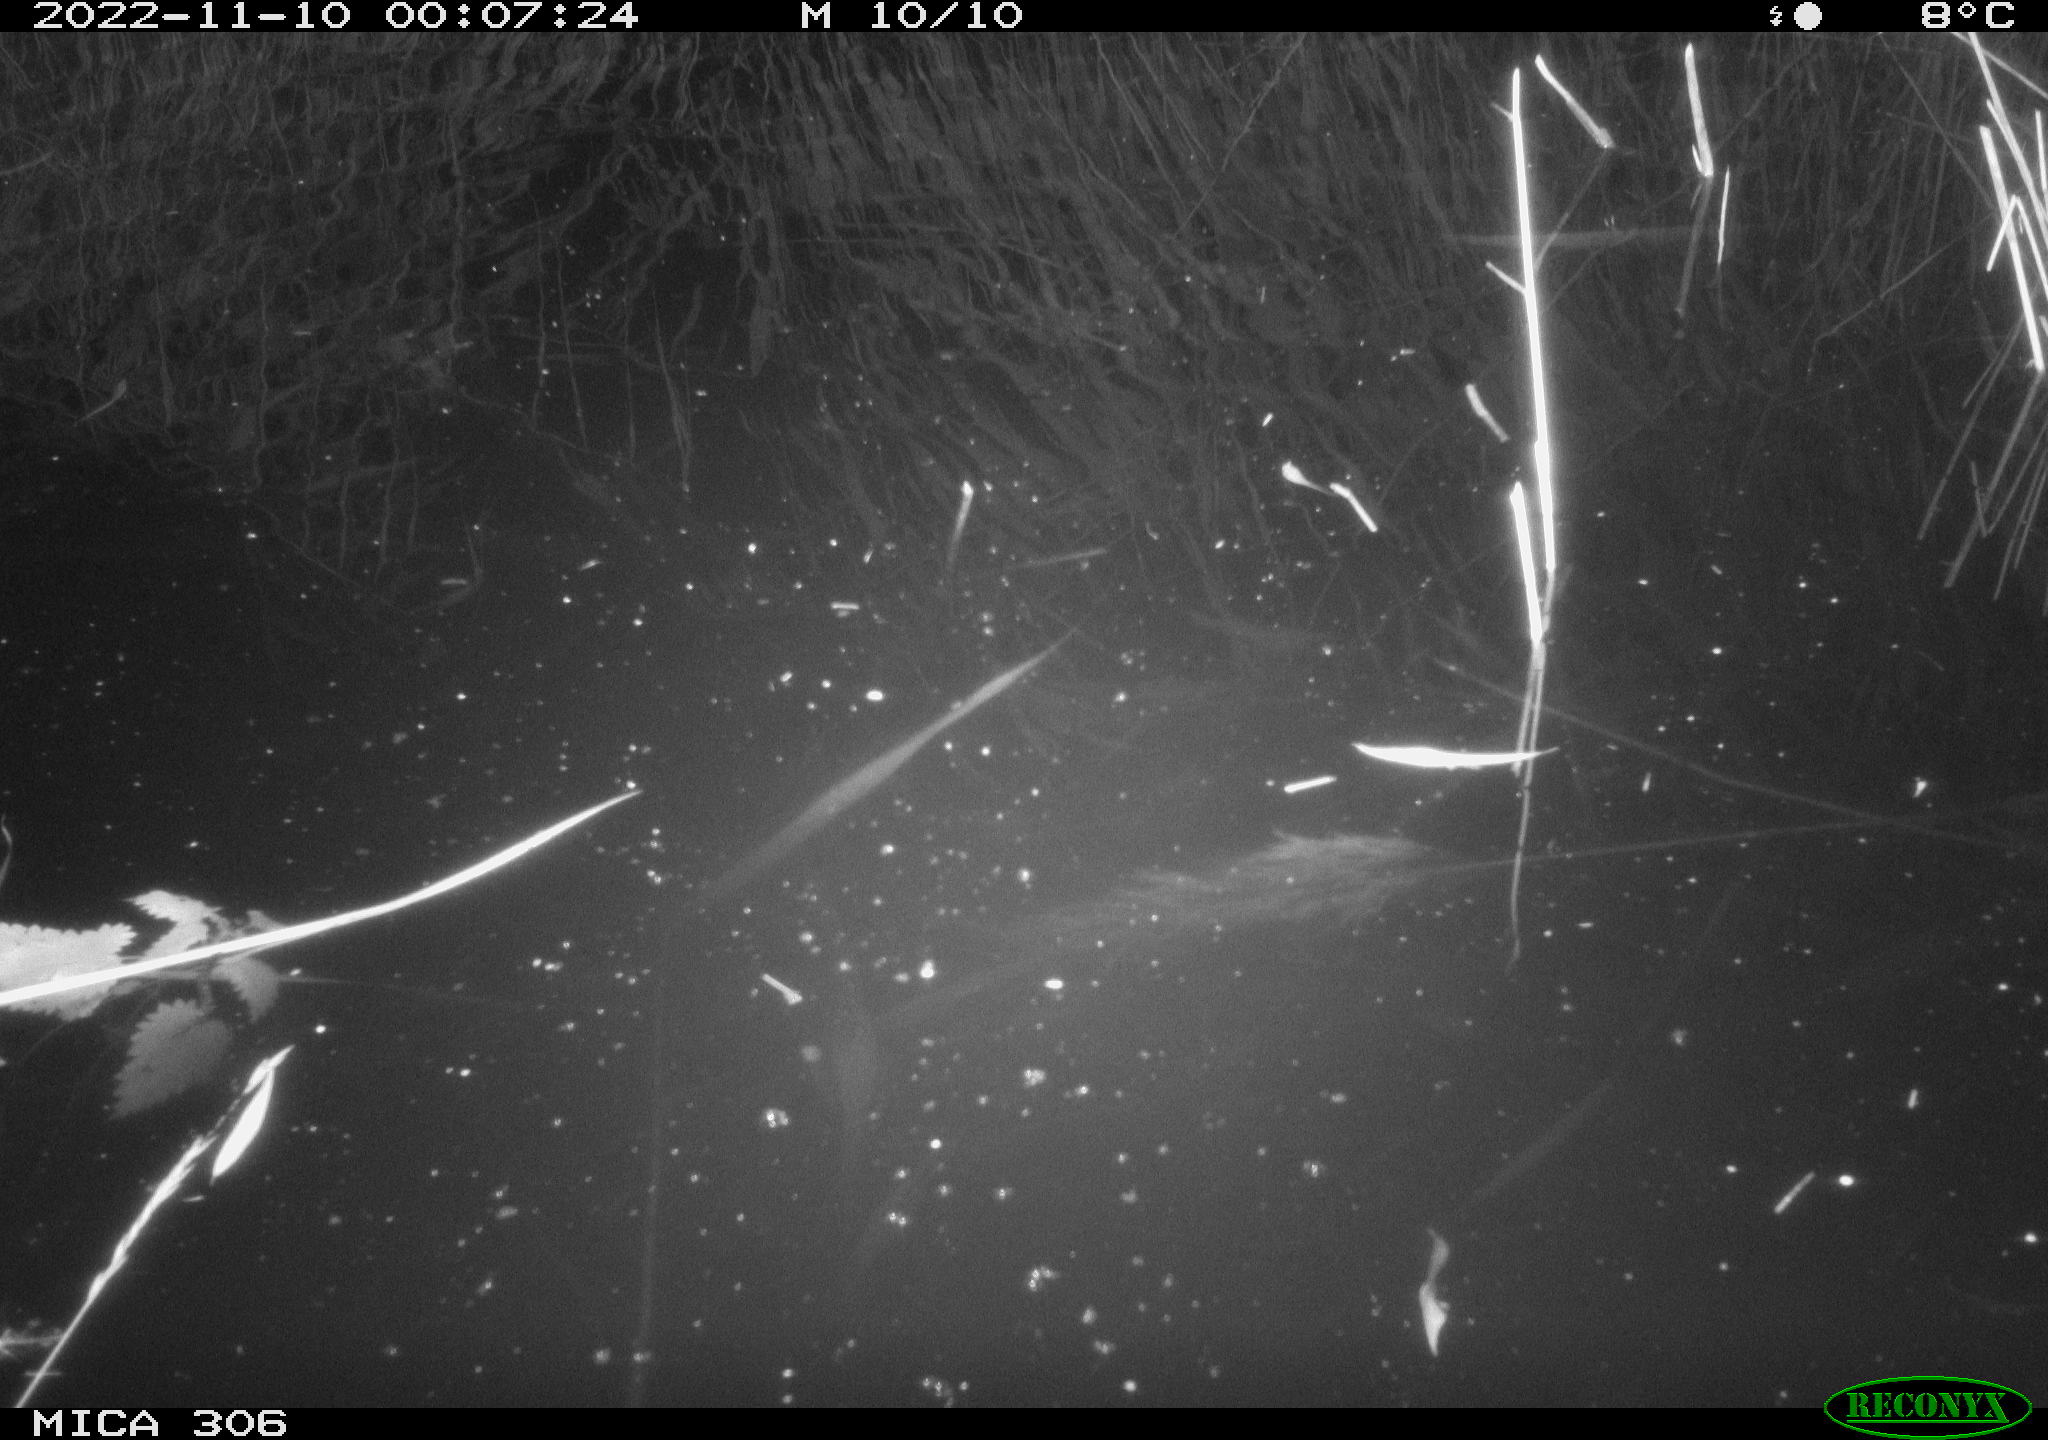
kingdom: Animalia
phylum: Chordata
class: Mammalia
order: Rodentia
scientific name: Rodentia
